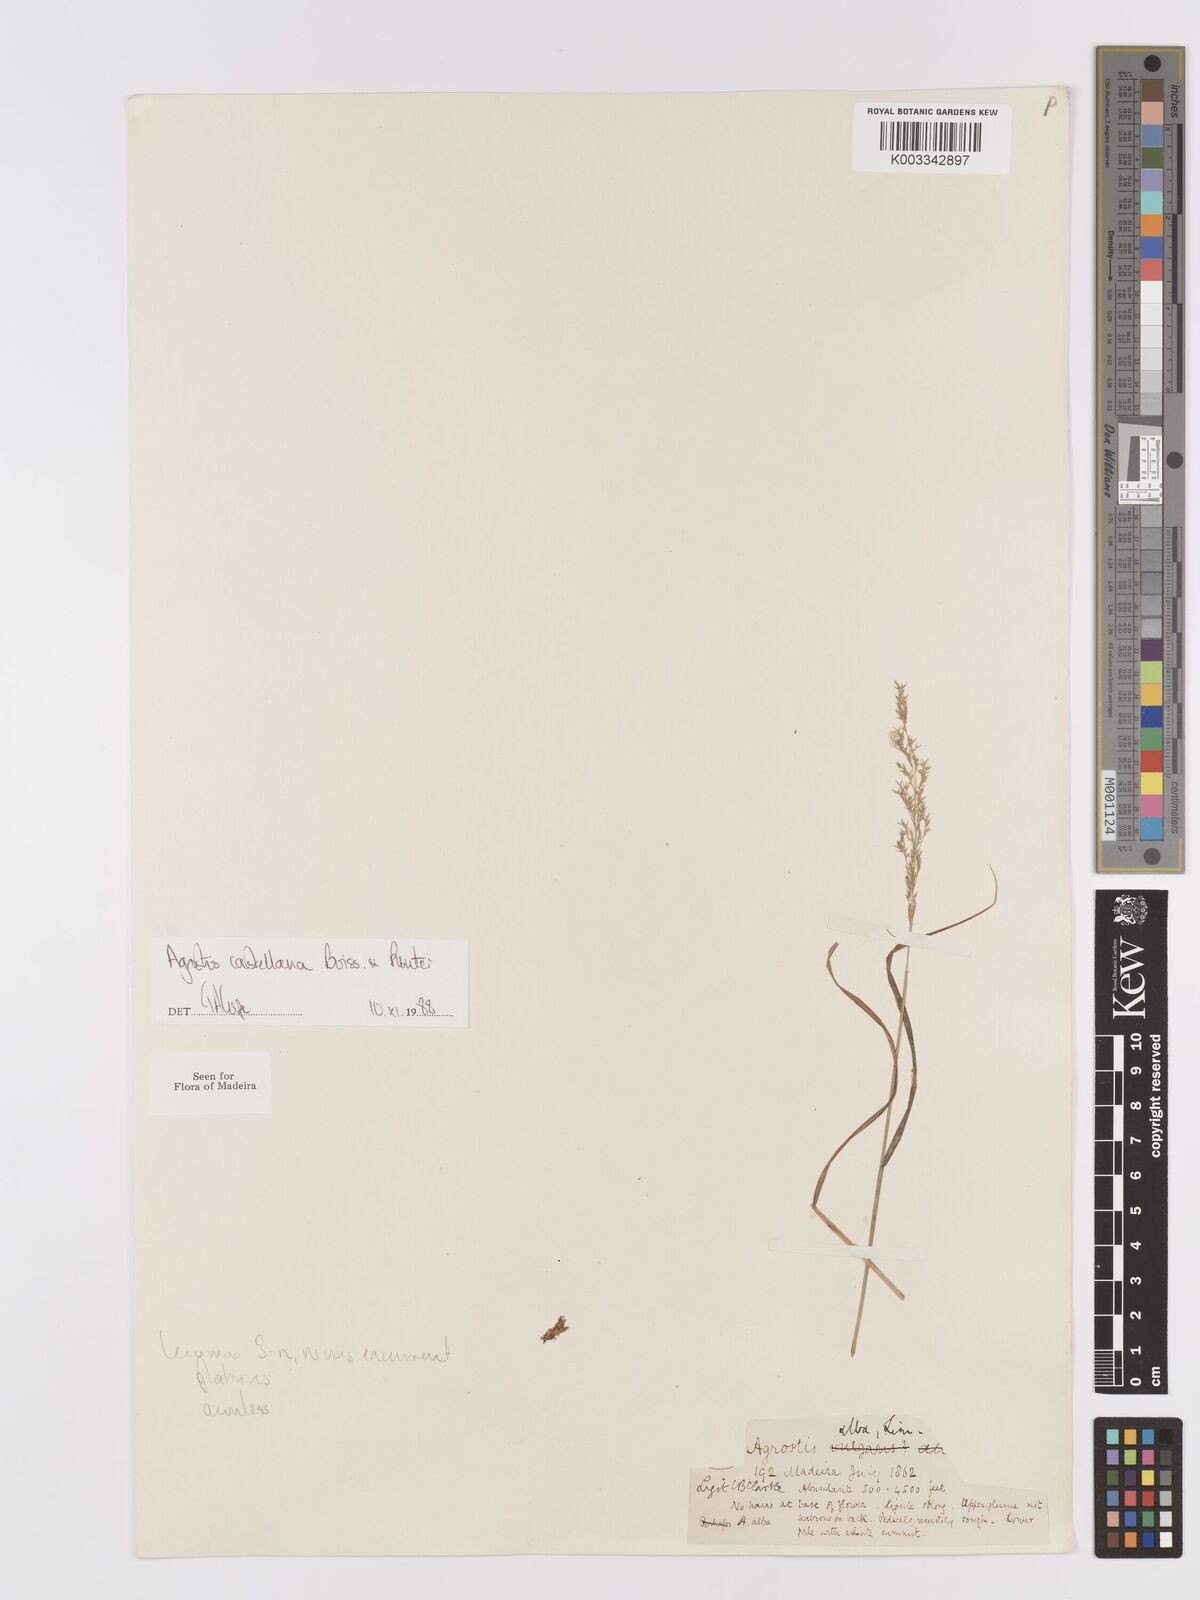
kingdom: Plantae
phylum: Tracheophyta
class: Liliopsida
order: Poales
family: Poaceae
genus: Agrostis
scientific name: Agrostis castellana
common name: Highland bent
